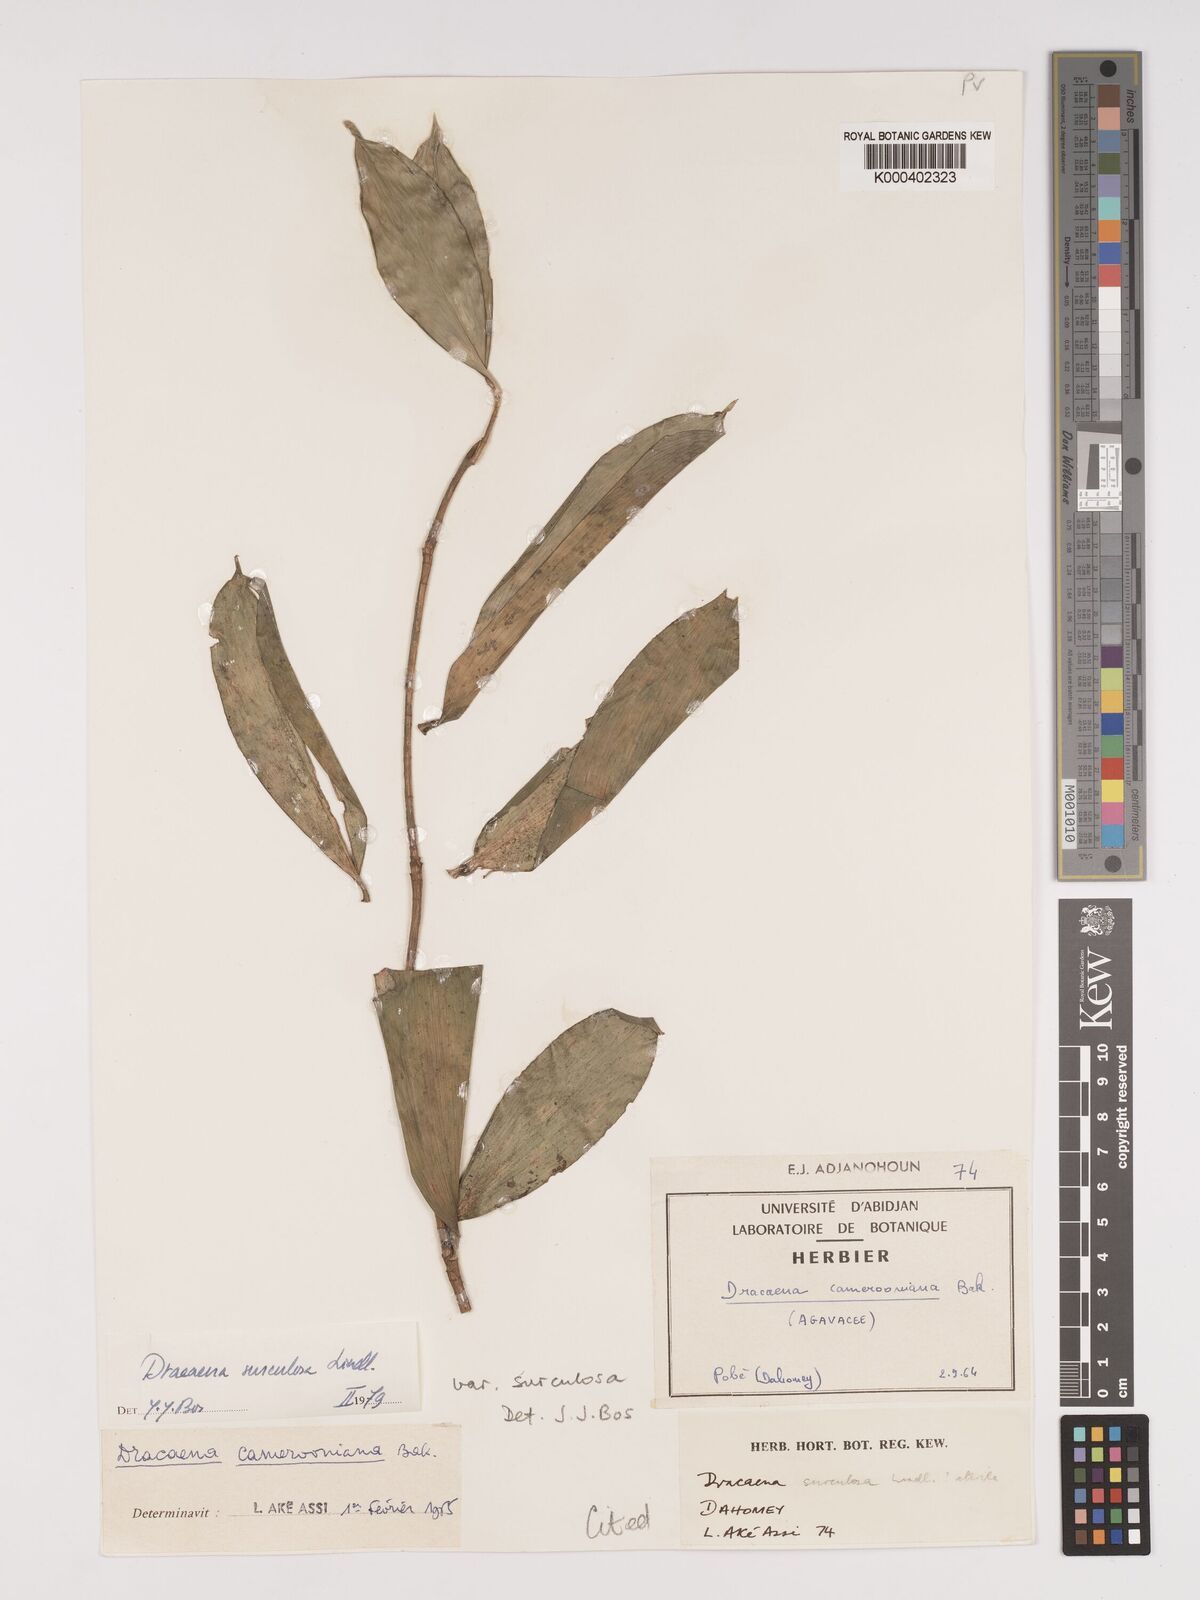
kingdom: Plantae
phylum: Tracheophyta
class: Liliopsida
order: Asparagales
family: Asparagaceae
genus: Dracaena
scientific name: Dracaena surculosa
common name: Spotted dracaena
